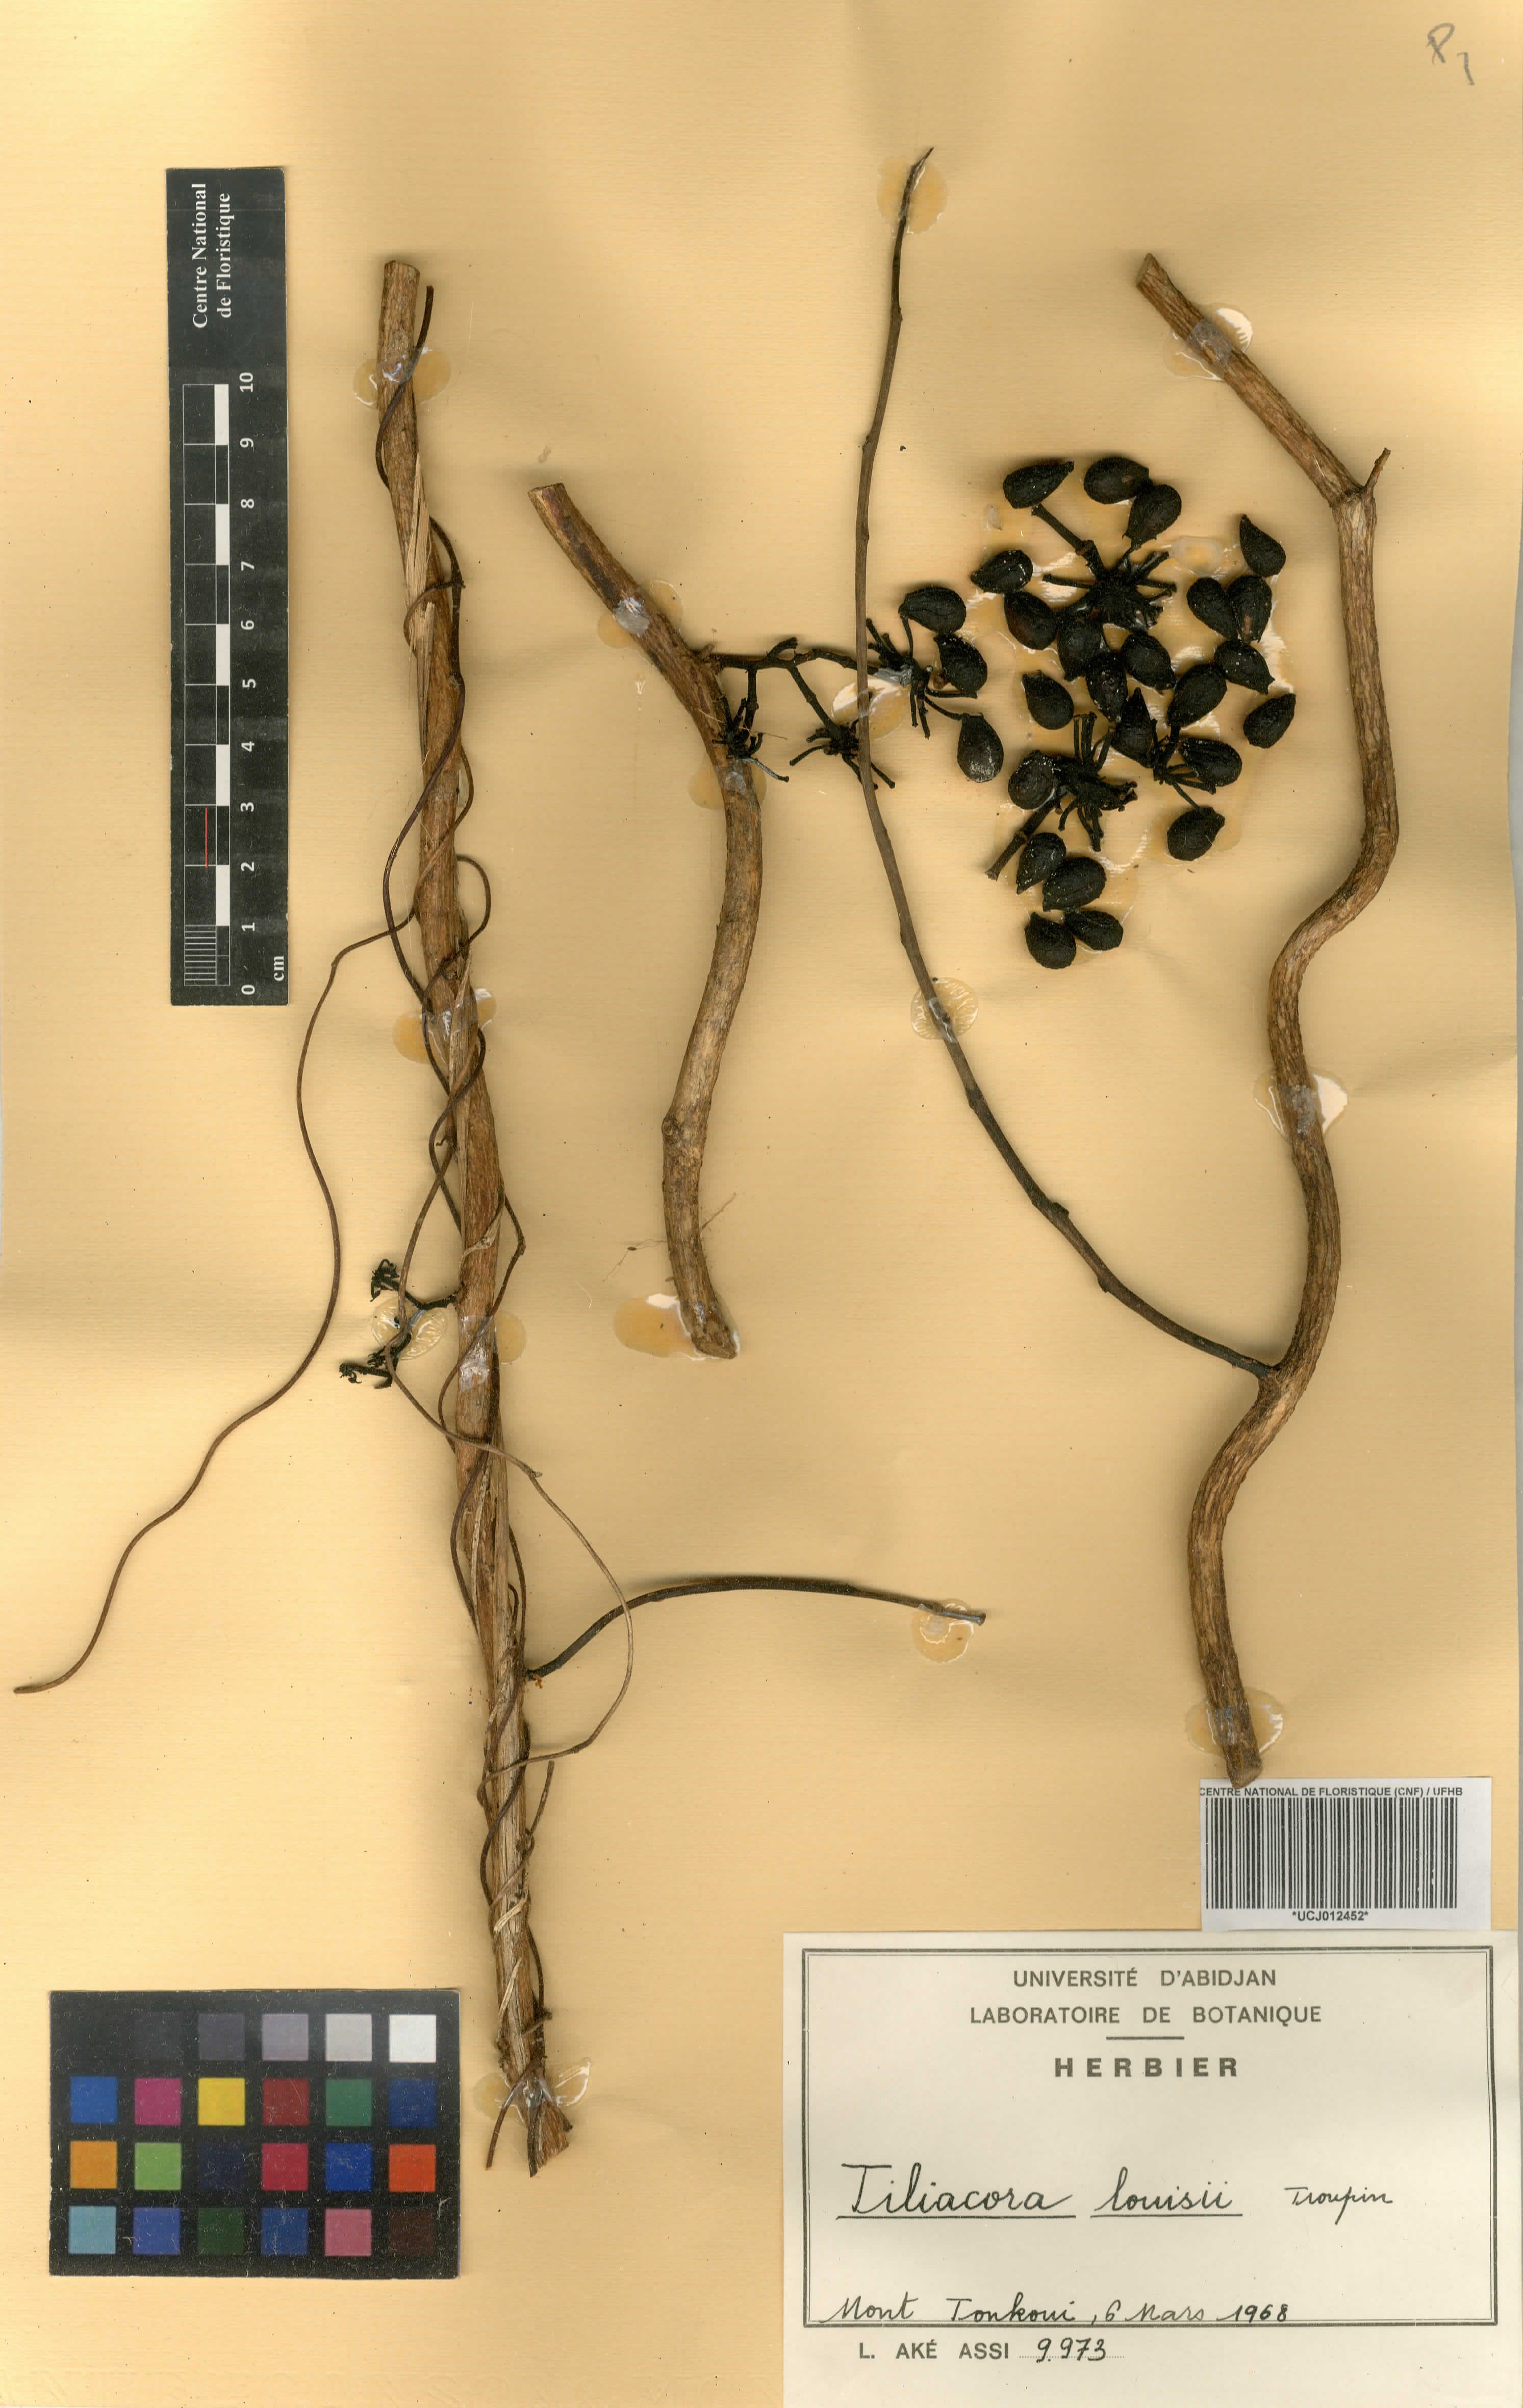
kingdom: Plantae
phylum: Tracheophyta
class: Magnoliopsida
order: Ranunculales
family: Menispermaceae
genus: Tiliacora
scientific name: Tiliacora louisii
